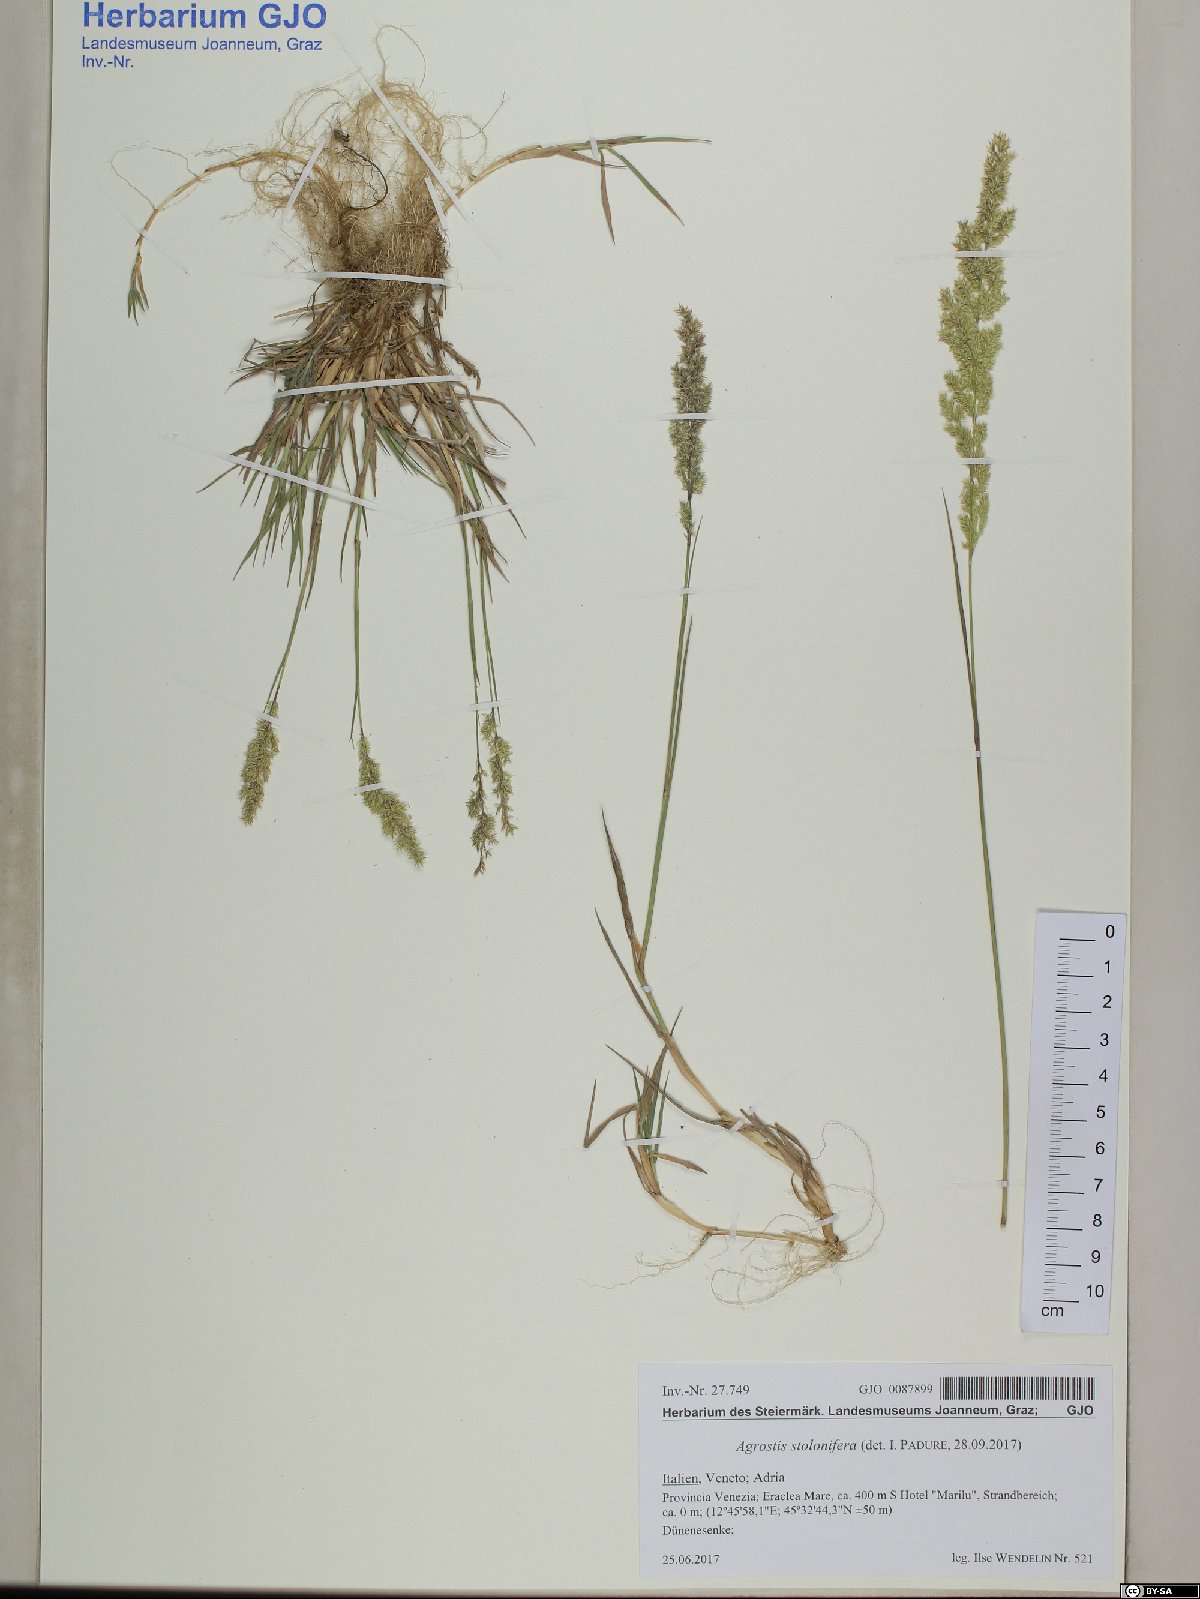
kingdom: Plantae
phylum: Tracheophyta
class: Liliopsida
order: Poales
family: Poaceae
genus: Agrostis
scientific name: Agrostis stolonifera
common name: Creeping bentgrass
